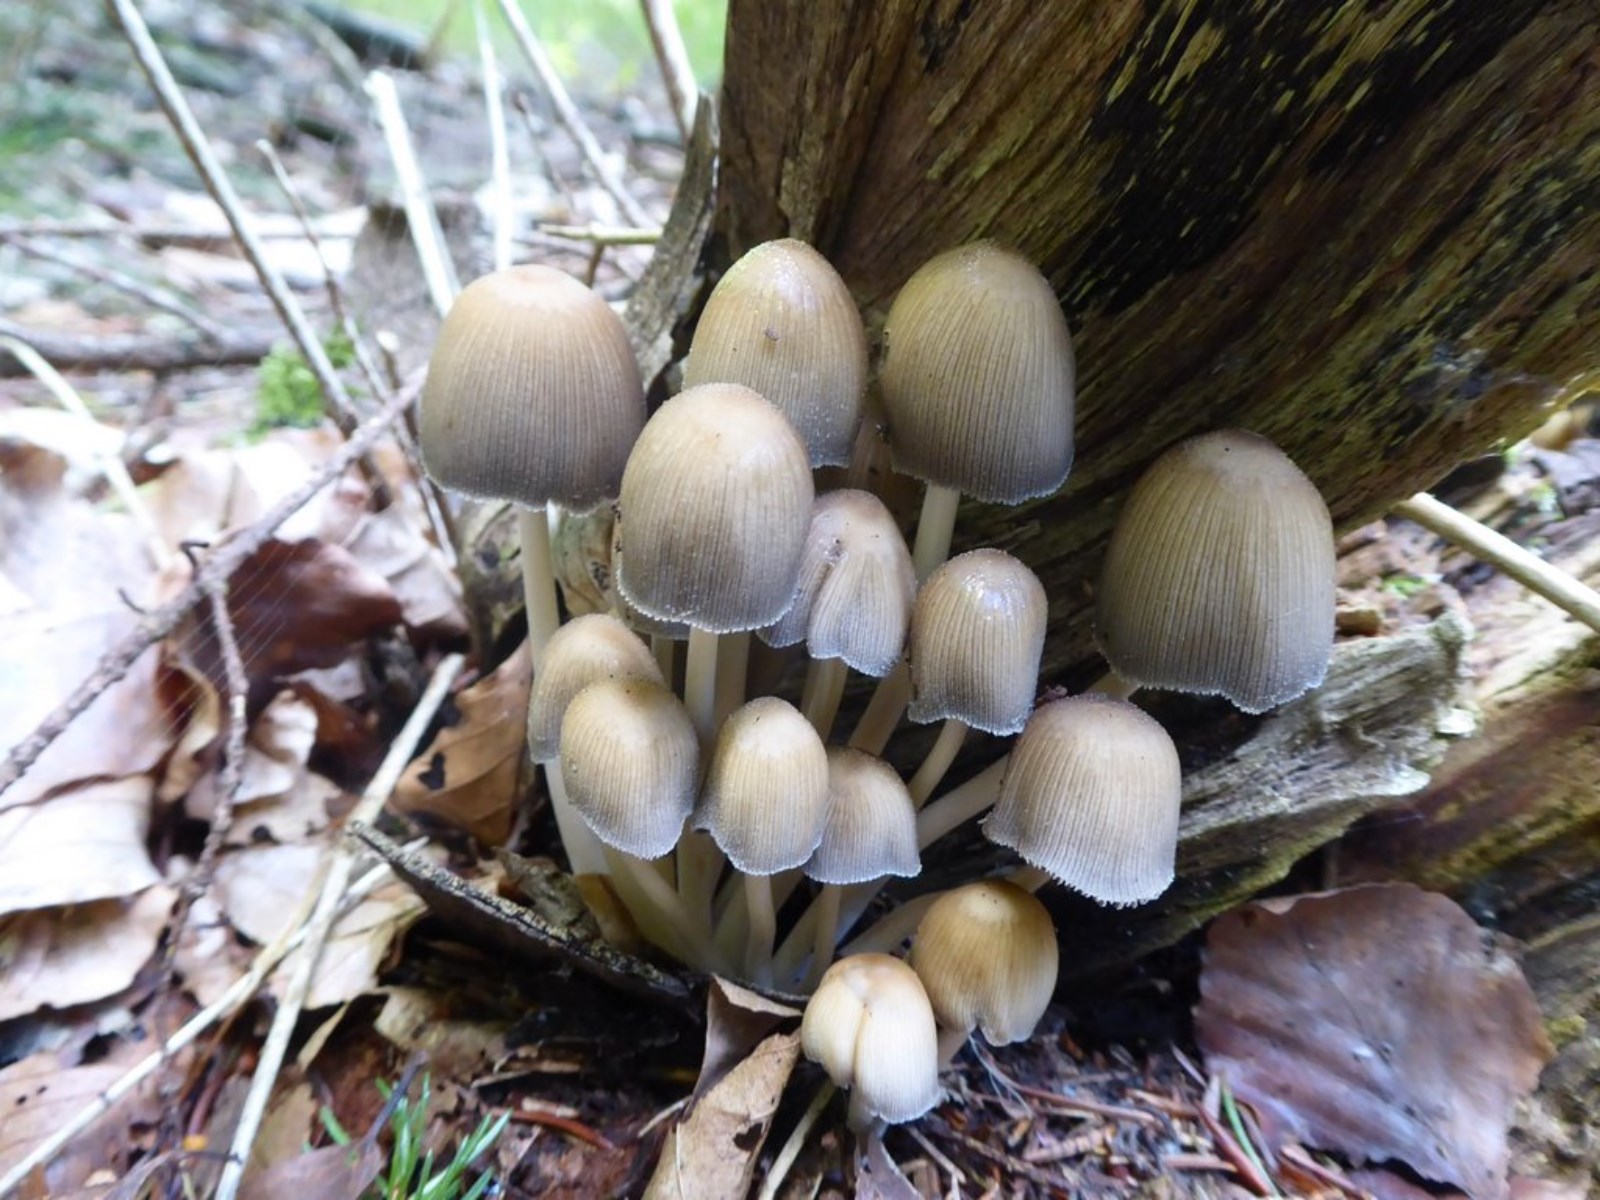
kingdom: Fungi
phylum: Basidiomycota
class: Agaricomycetes
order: Agaricales
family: Psathyrellaceae
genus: Coprinellus
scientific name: Coprinellus
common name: blækhat
